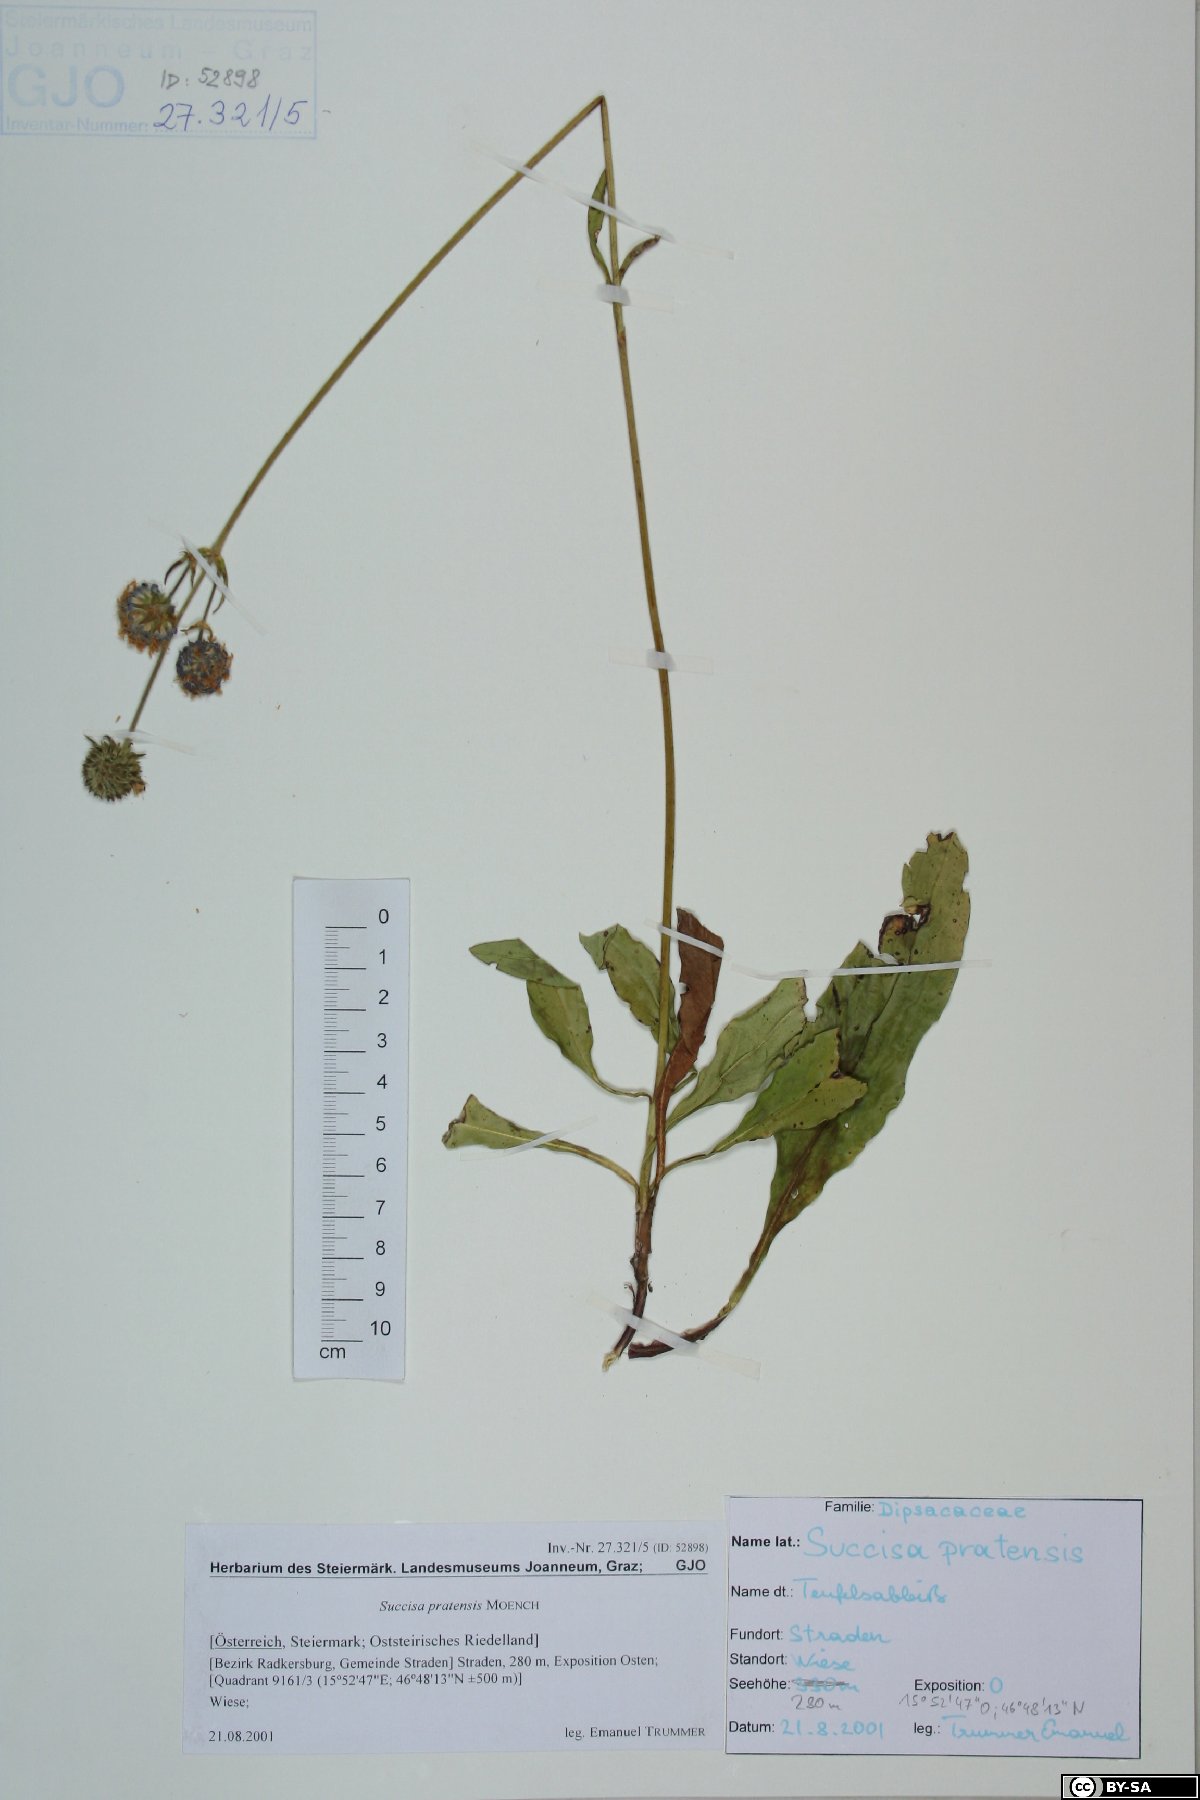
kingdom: Plantae
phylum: Tracheophyta
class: Magnoliopsida
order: Dipsacales
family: Caprifoliaceae
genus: Succisa
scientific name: Succisa pratensis
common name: Devil's-bit
